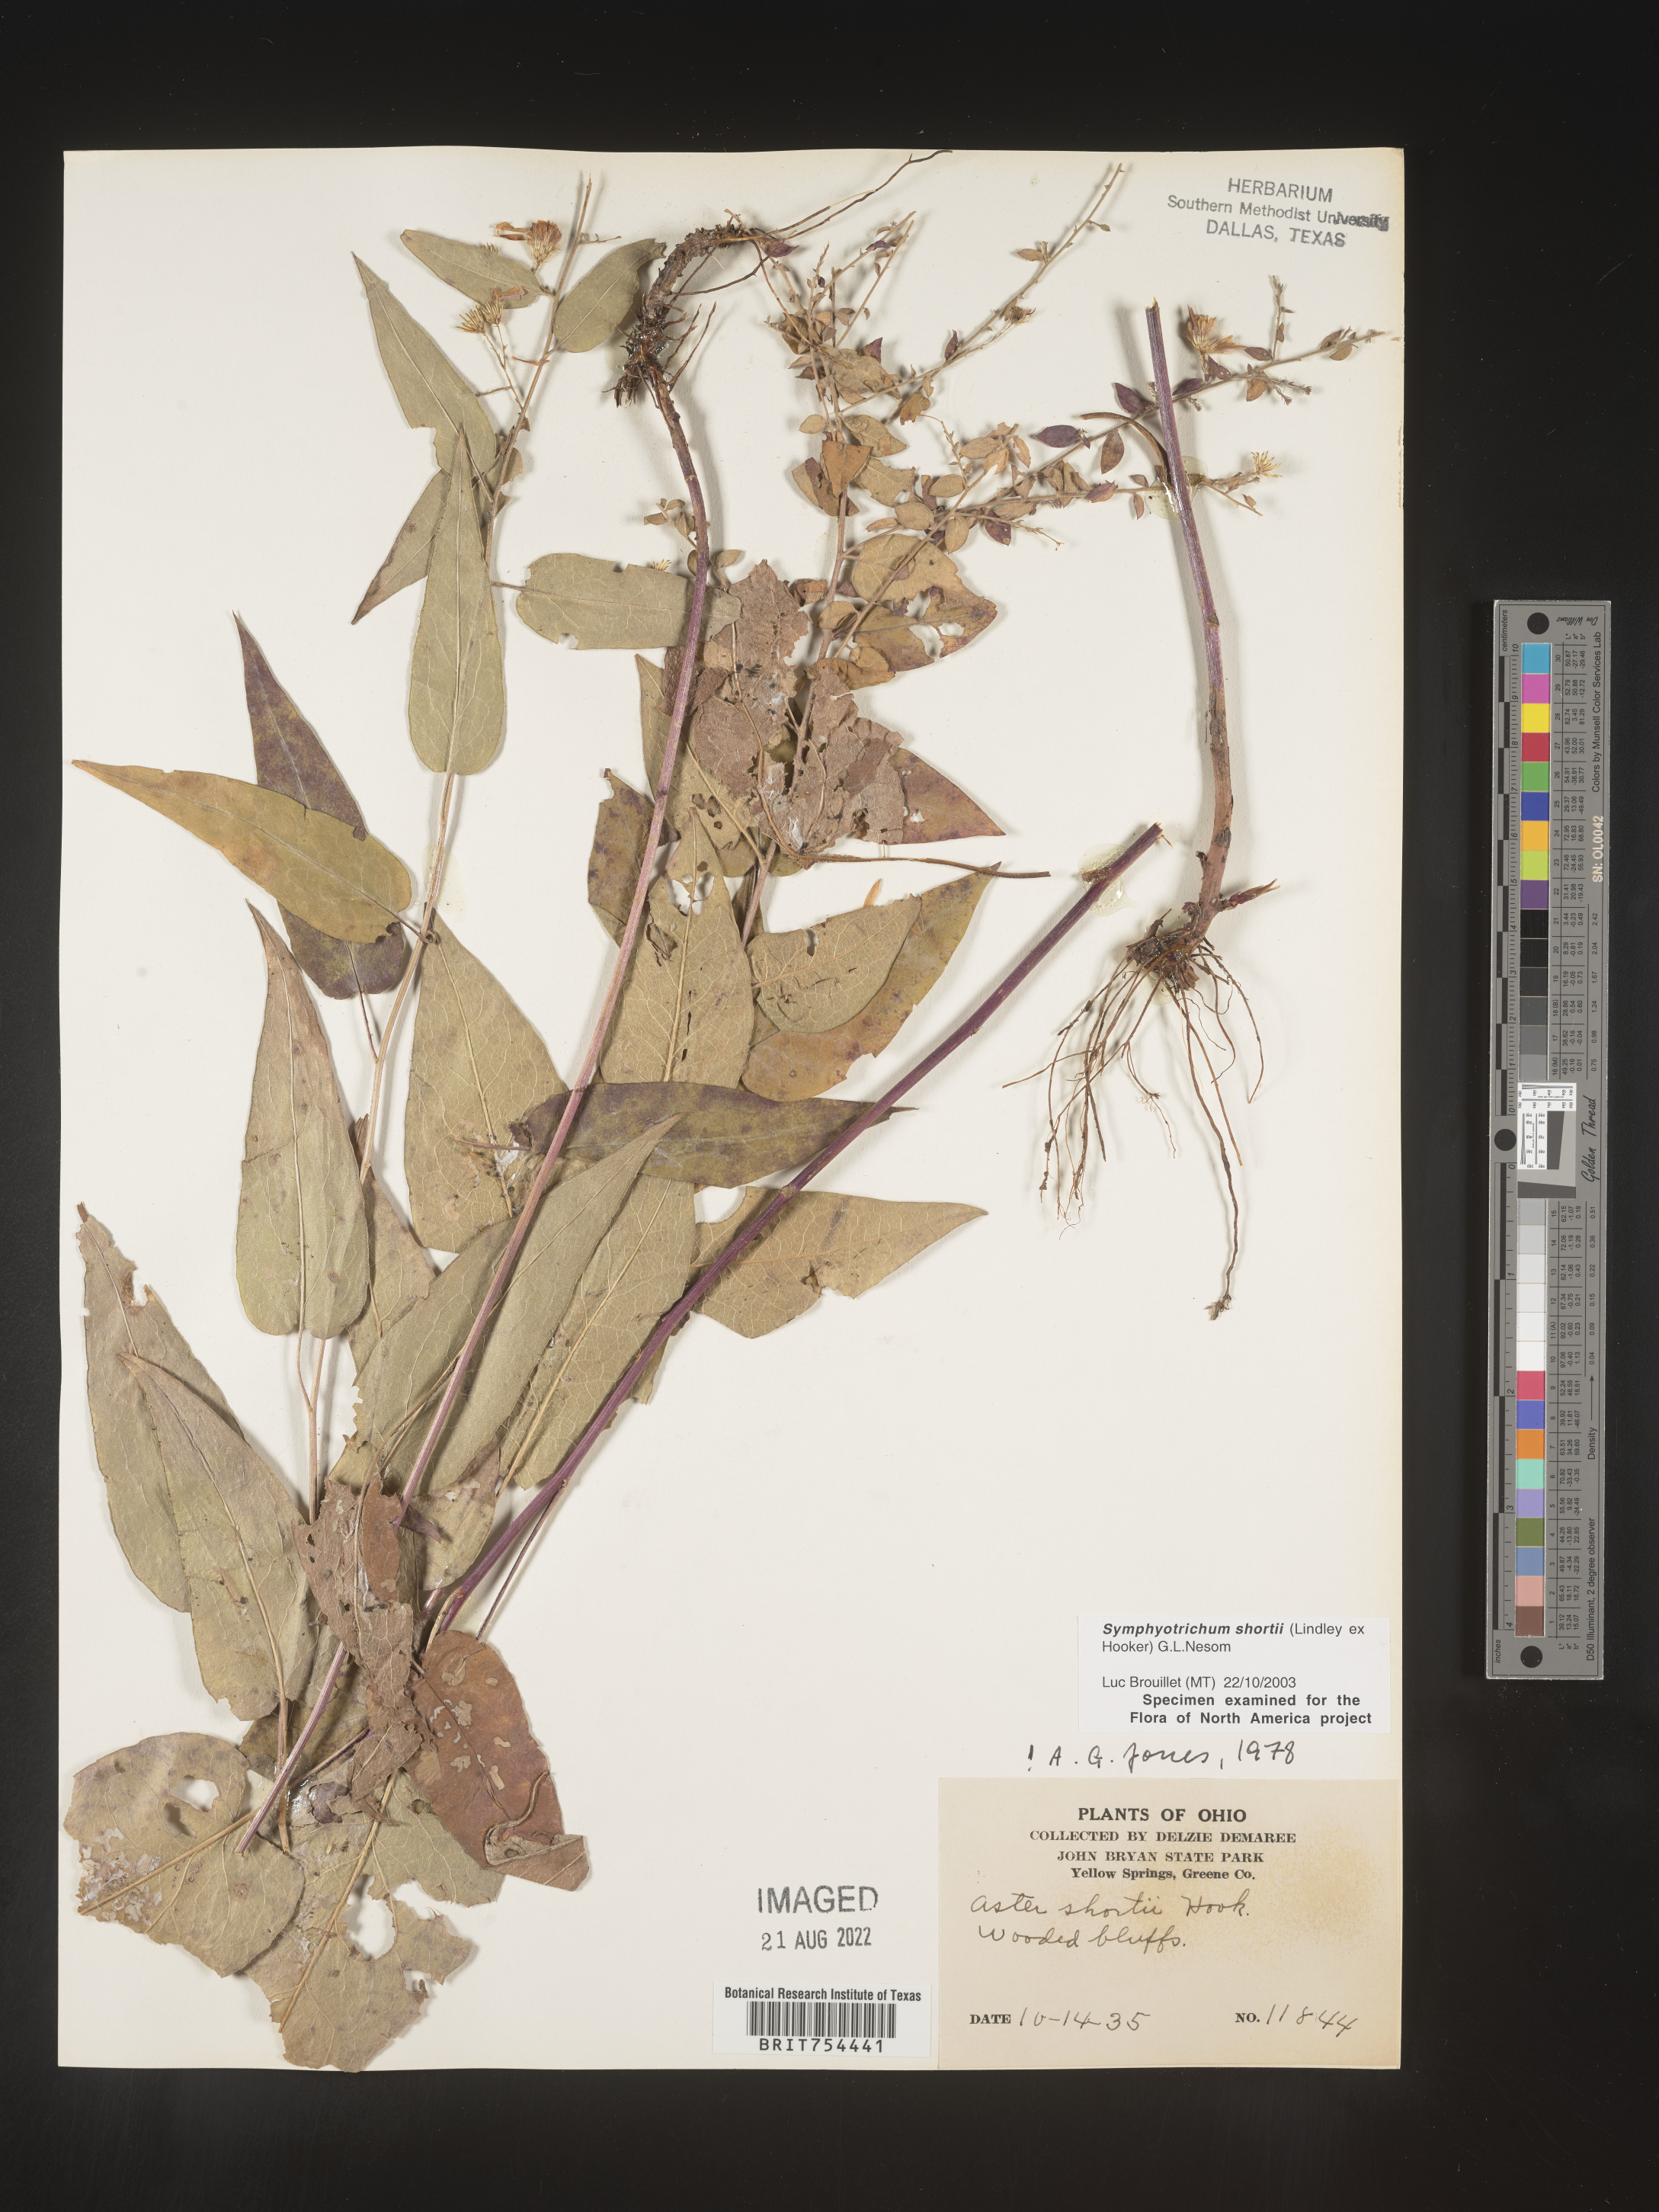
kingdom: Plantae
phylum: Tracheophyta
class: Magnoliopsida
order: Asterales
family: Asteraceae
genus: Symphyotrichum
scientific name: Symphyotrichum shortii
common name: Short's aster
